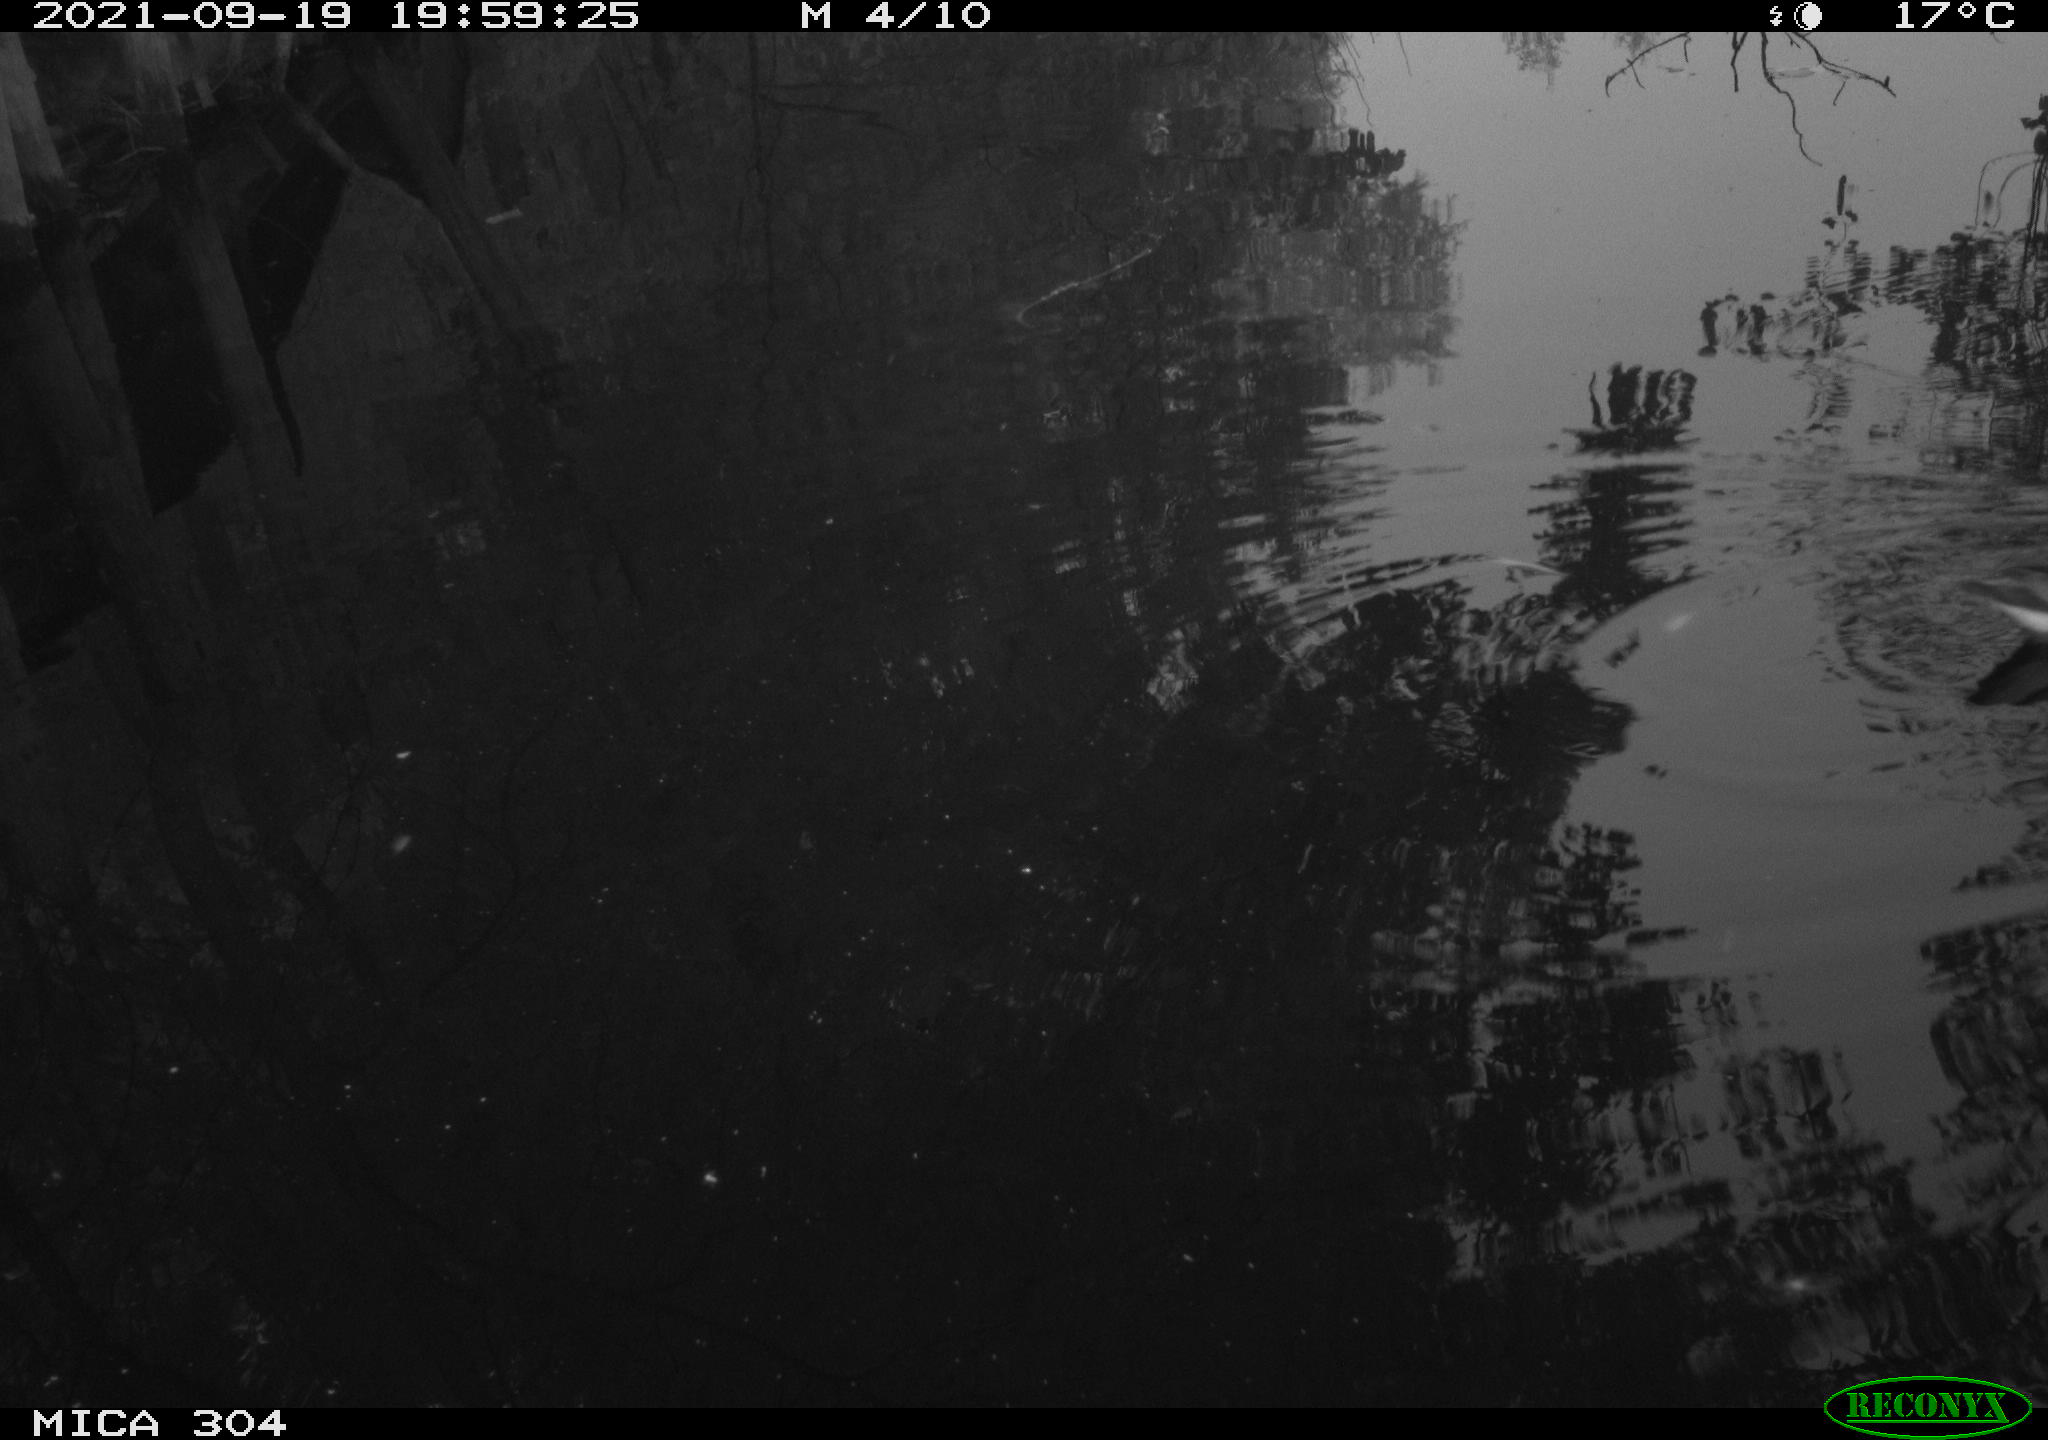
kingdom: Animalia
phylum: Chordata
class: Aves
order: Gruiformes
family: Rallidae
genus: Gallinula
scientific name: Gallinula chloropus
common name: Common moorhen
